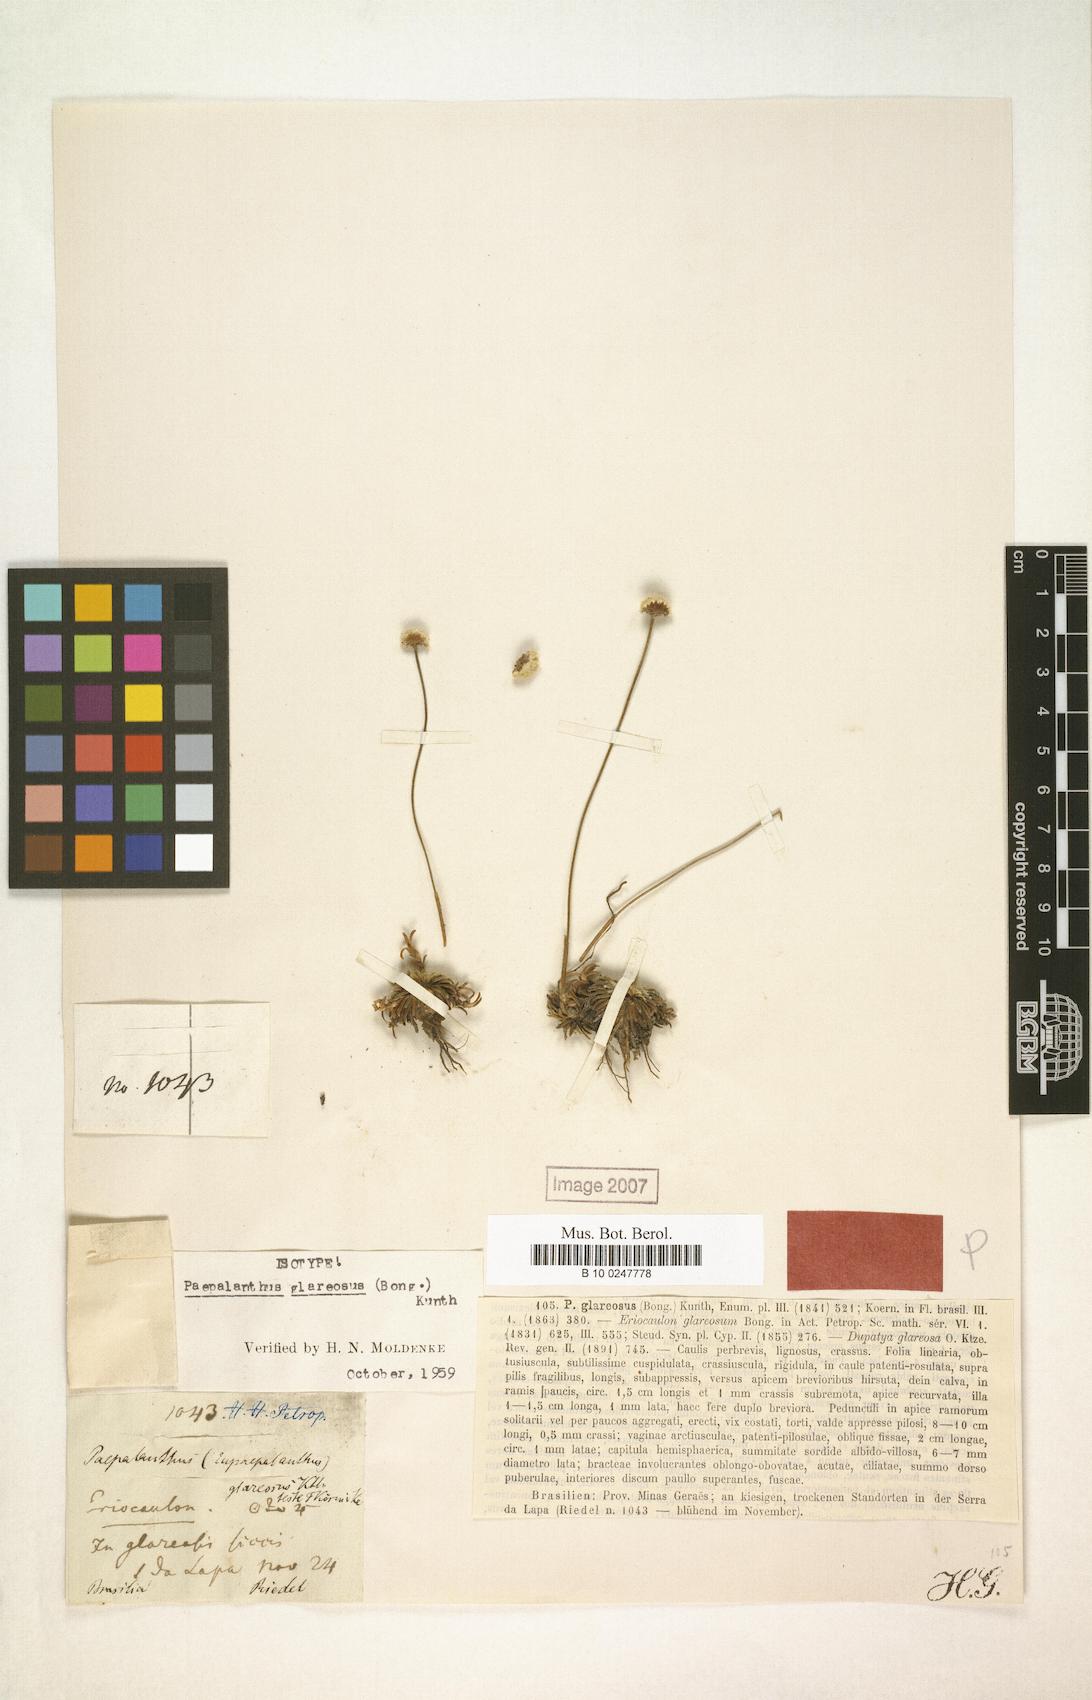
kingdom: Plantae
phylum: Tracheophyta
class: Liliopsida
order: Poales
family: Eriocaulaceae
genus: Paepalanthus
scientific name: Paepalanthus glareosus
